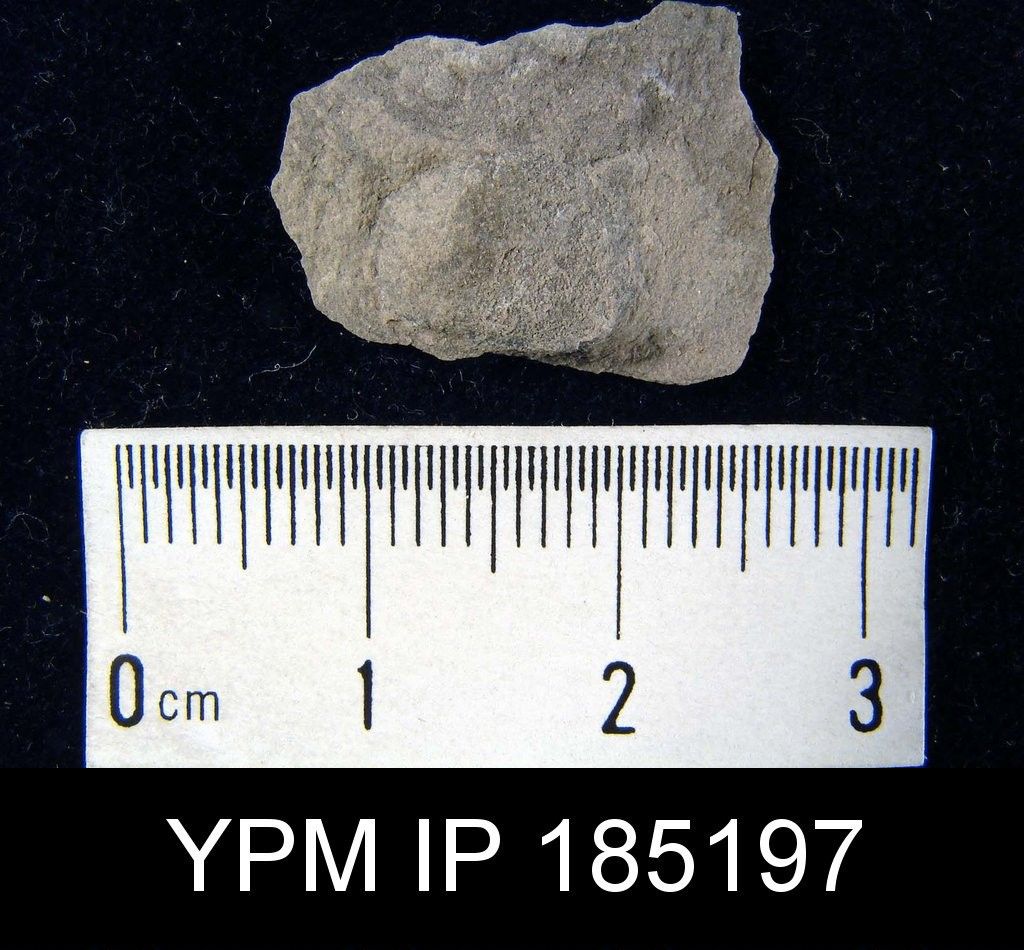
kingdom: Animalia
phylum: Brachiopoda
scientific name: Brachiopoda
